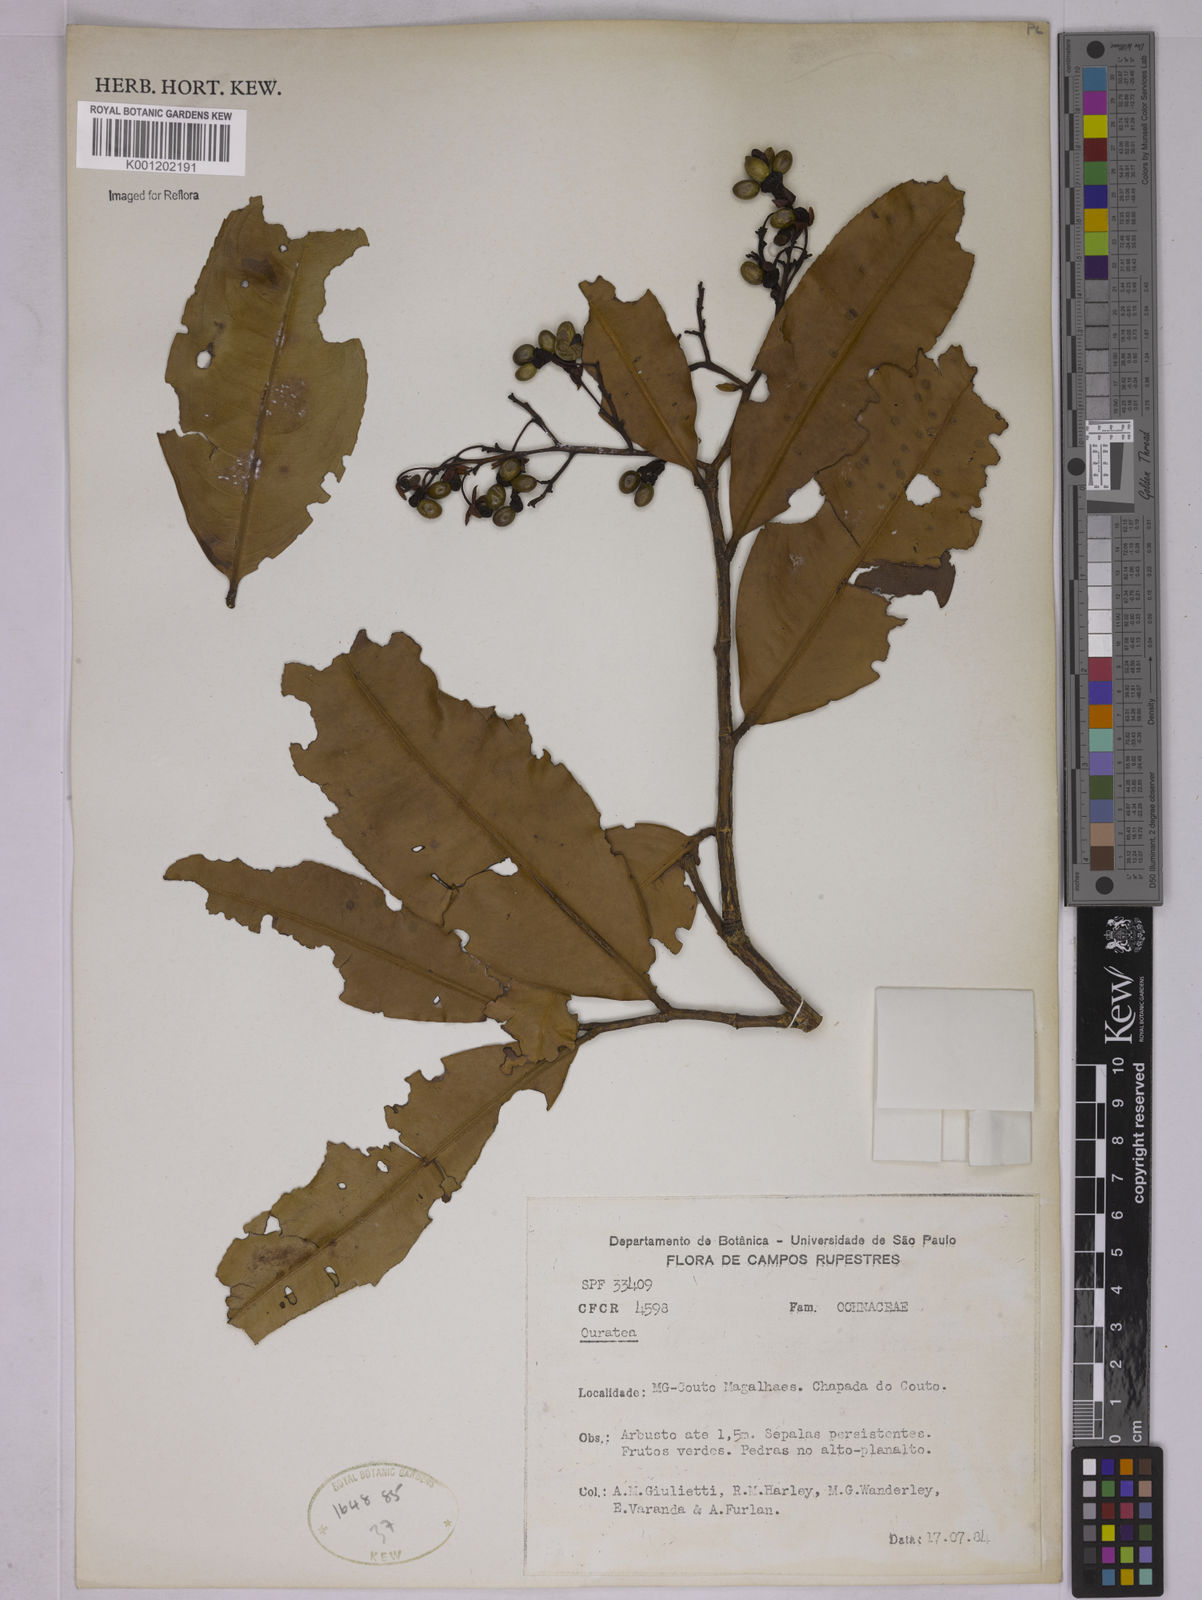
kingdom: Plantae
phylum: Tracheophyta
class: Magnoliopsida
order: Malpighiales
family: Ochnaceae
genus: Ouratea
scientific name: Ouratea
